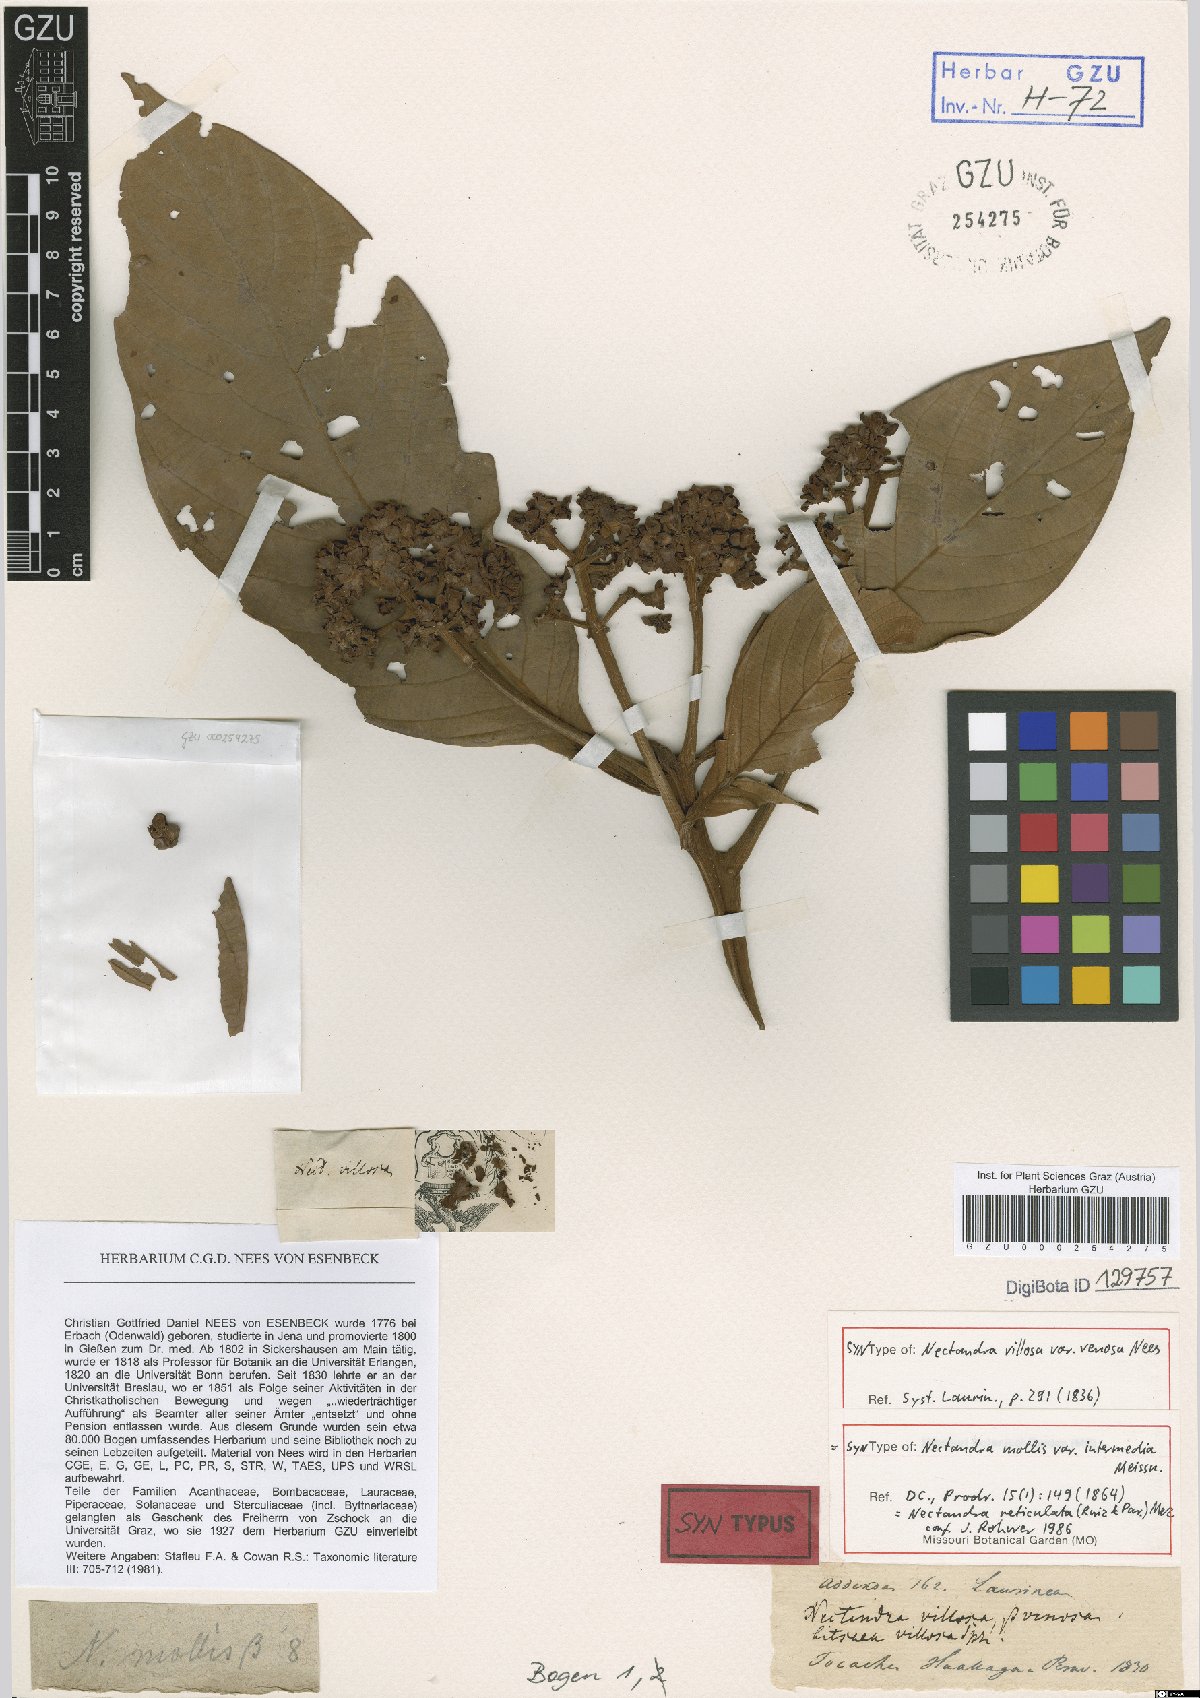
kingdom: Plantae
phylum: Tracheophyta
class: Magnoliopsida
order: Laurales
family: Lauraceae
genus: Nectandra
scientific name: Nectandra villosa
